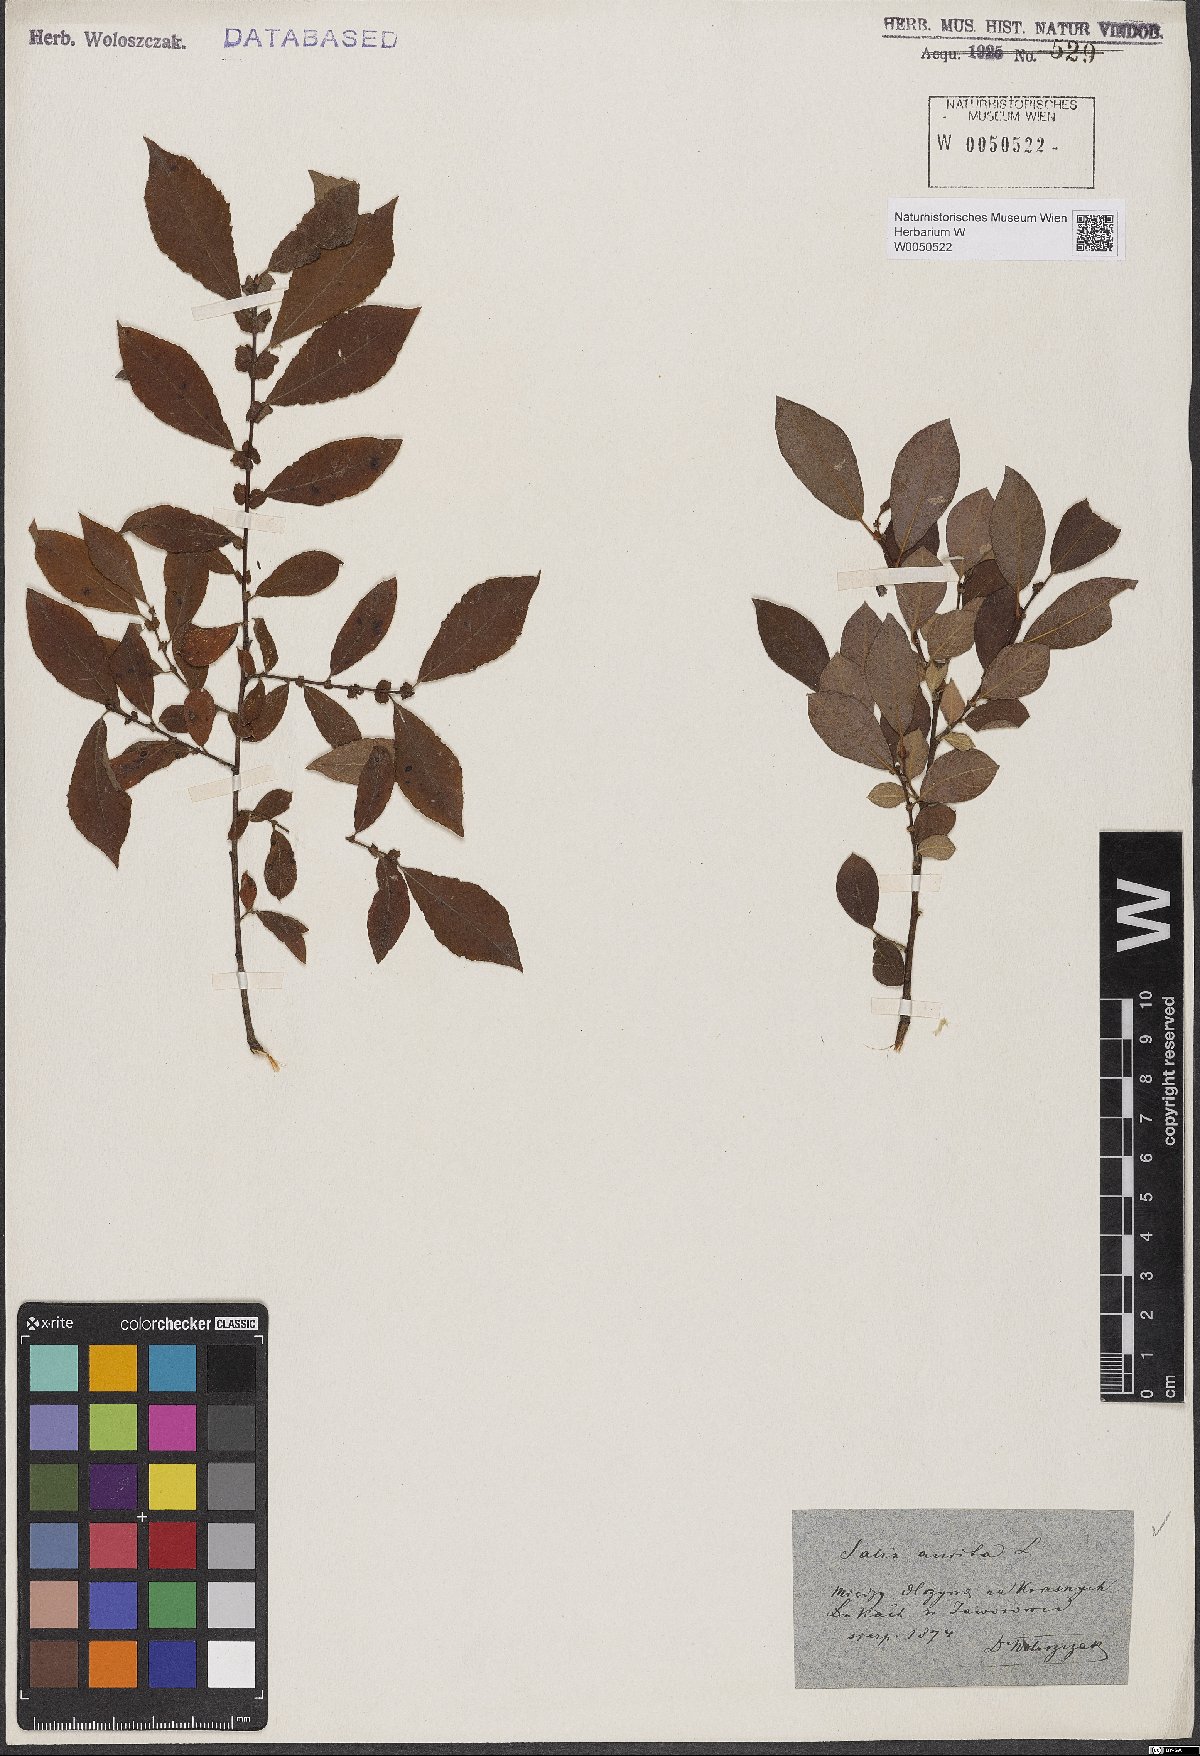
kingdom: Plantae
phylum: Tracheophyta
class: Magnoliopsida
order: Malpighiales
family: Salicaceae
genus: Salix
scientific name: Salix aurita
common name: Eared willow
